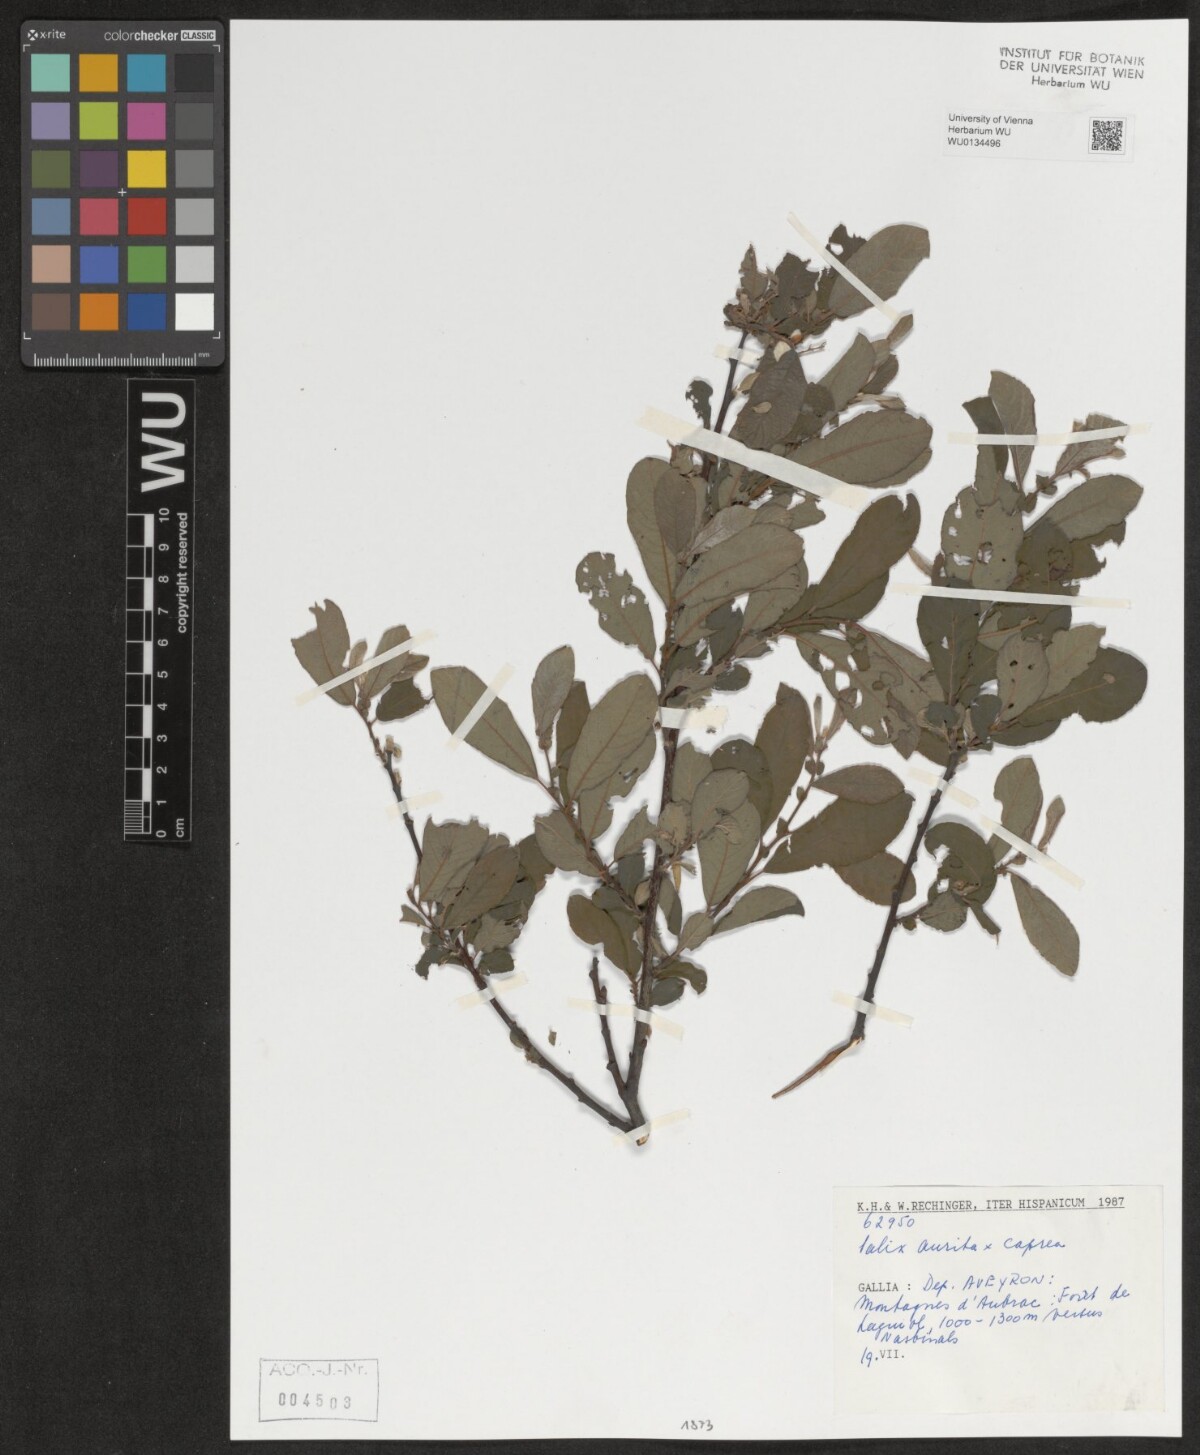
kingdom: Plantae
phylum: Tracheophyta
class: Magnoliopsida
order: Malpighiales
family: Salicaceae
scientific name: Salicaceae
